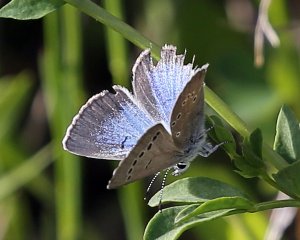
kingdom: Animalia
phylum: Arthropoda
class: Insecta
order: Lepidoptera
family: Lycaenidae
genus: Glaucopsyche
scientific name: Glaucopsyche lygdamus
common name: Silvery Blue
